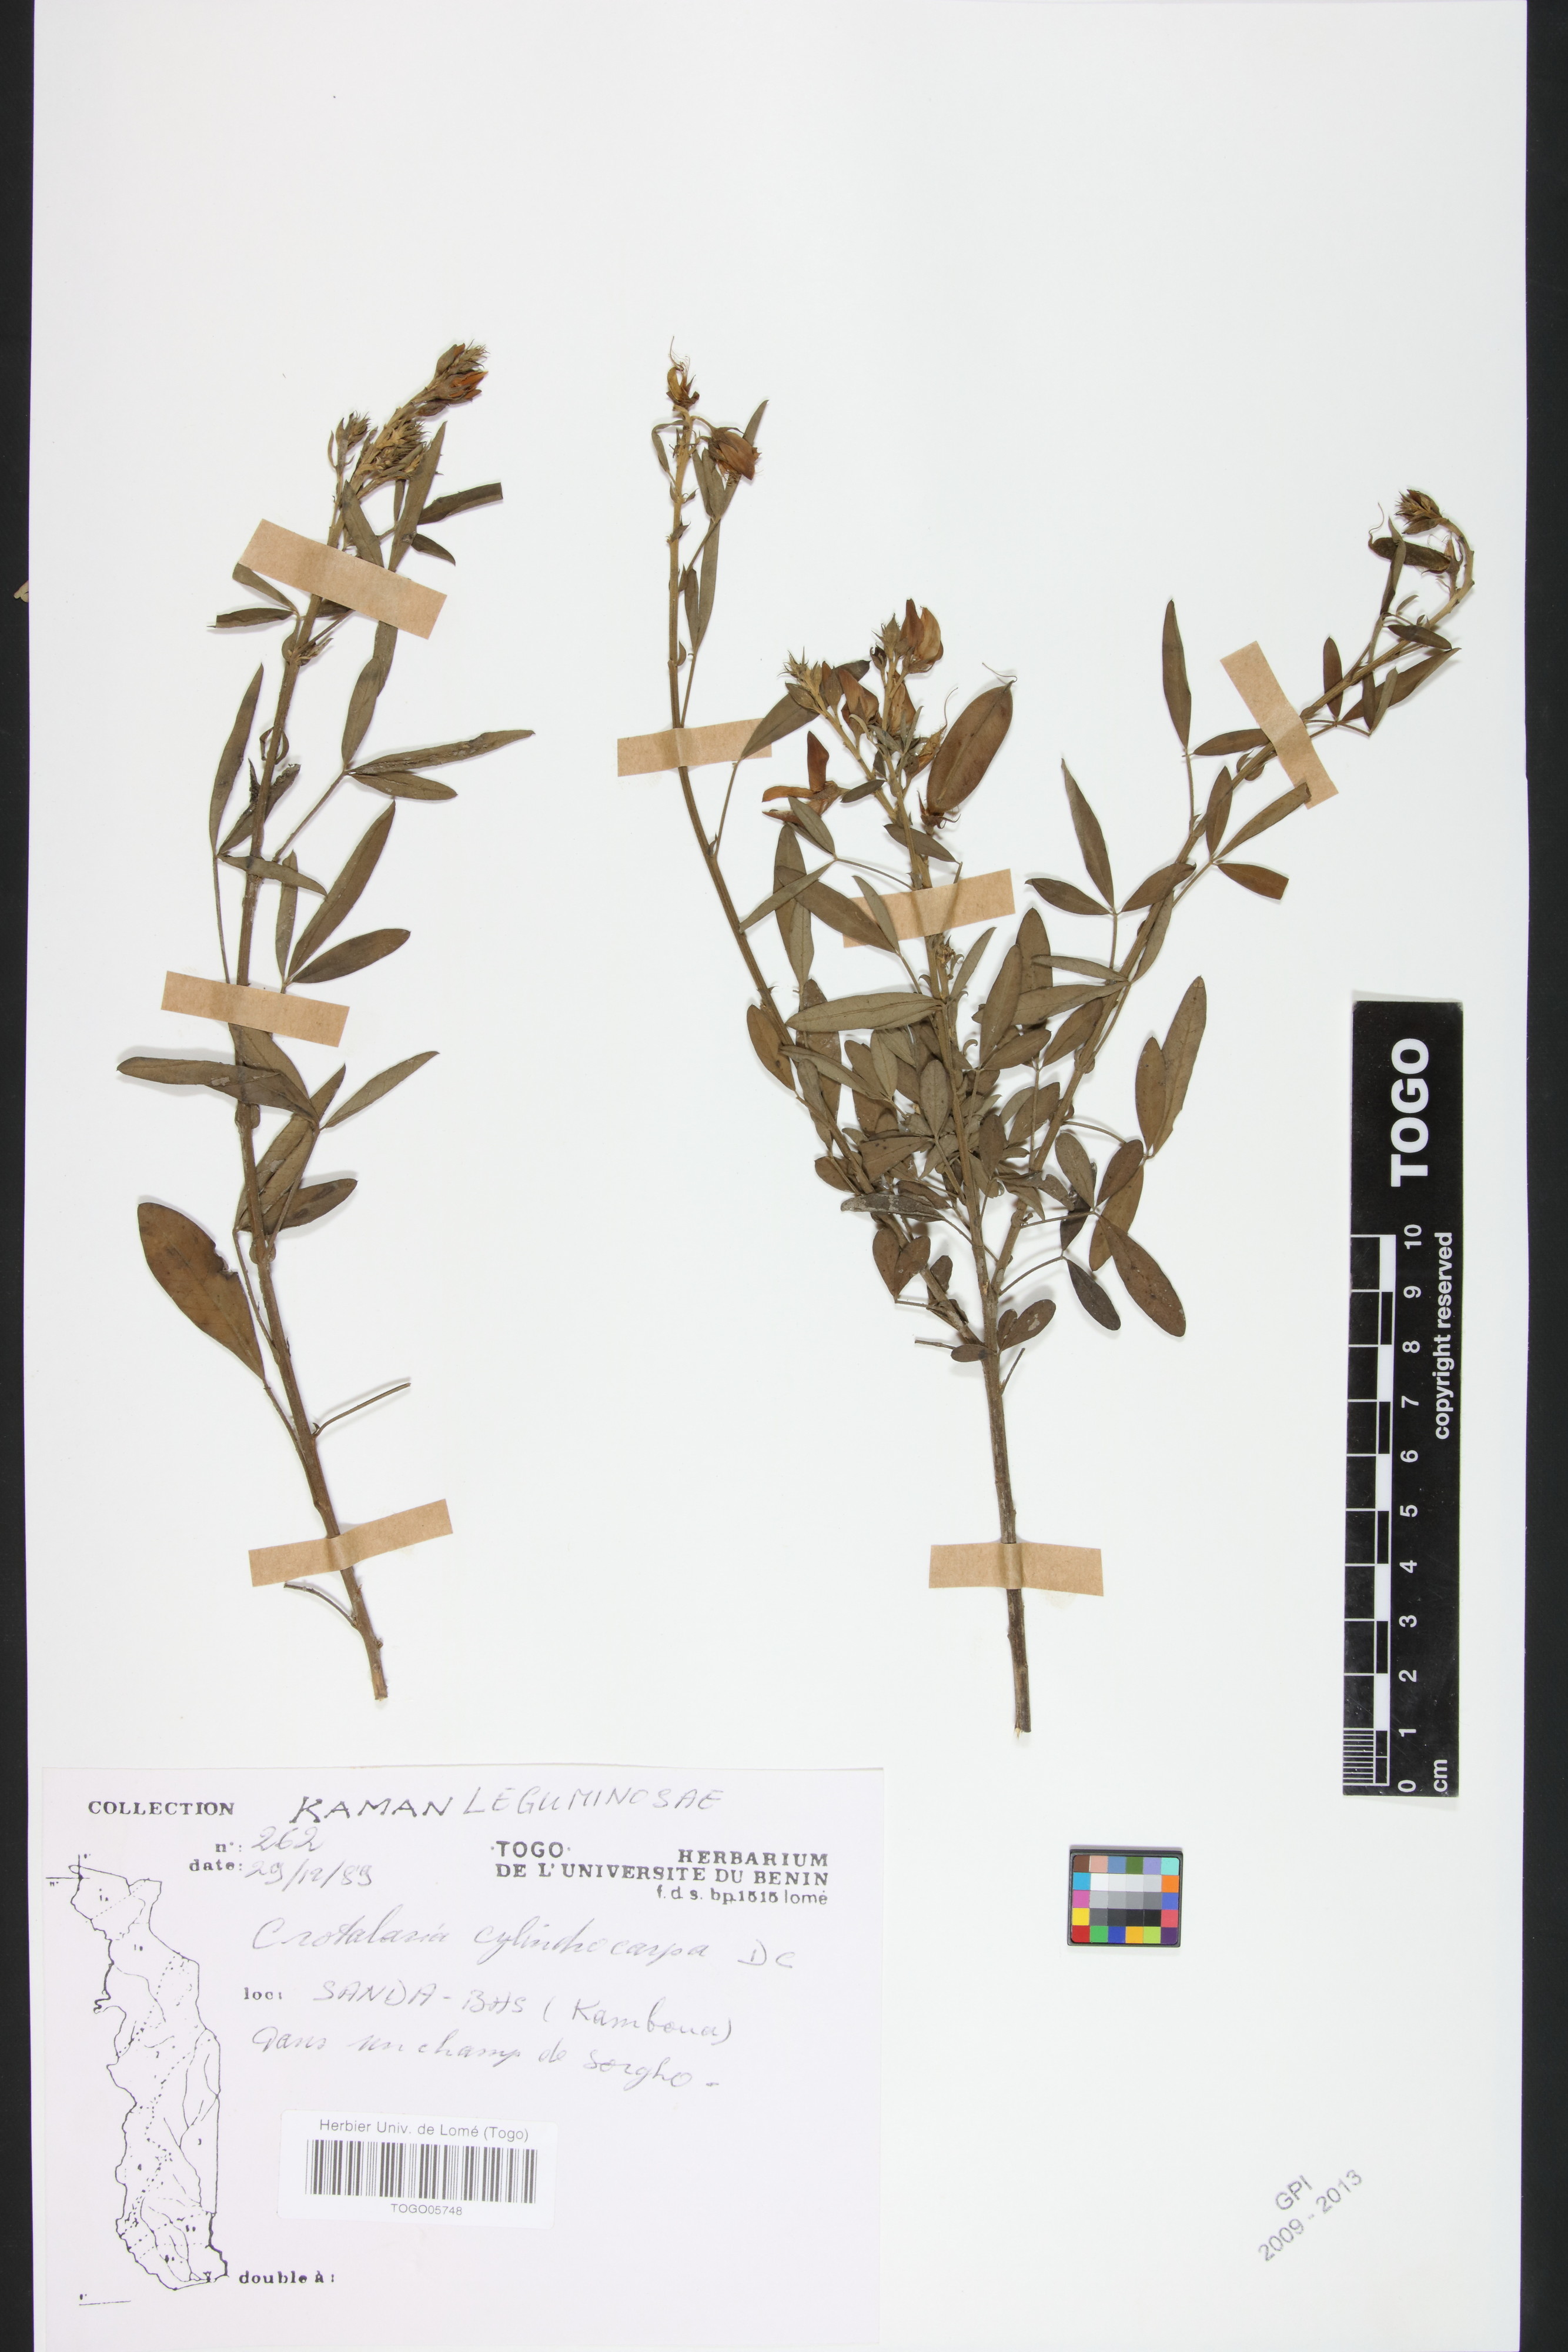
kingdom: Plantae
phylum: Tracheophyta
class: Magnoliopsida
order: Fabales
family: Fabaceae
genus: Crotalaria
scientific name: Crotalaria cylindrocarpa
